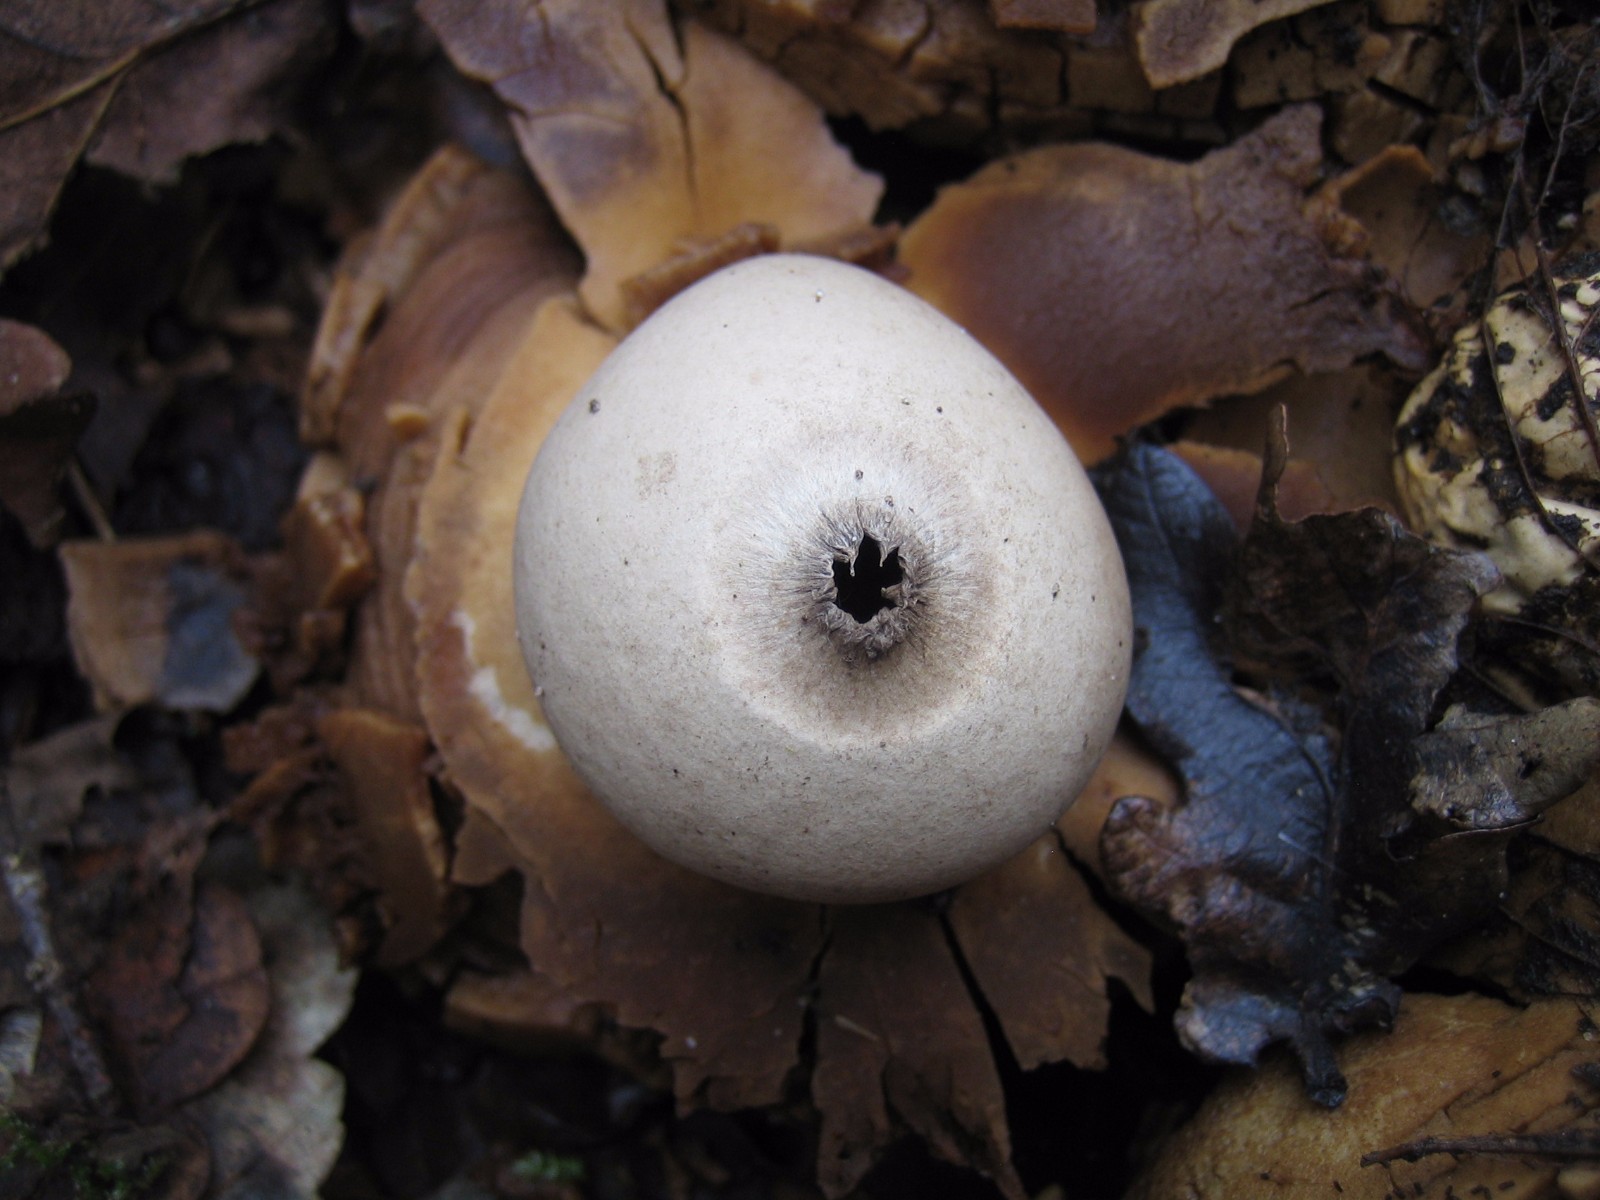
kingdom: Fungi
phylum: Basidiomycota
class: Agaricomycetes
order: Geastrales
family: Geastraceae
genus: Geastrum
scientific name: Geastrum michelianum
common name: kødet stjernebold
